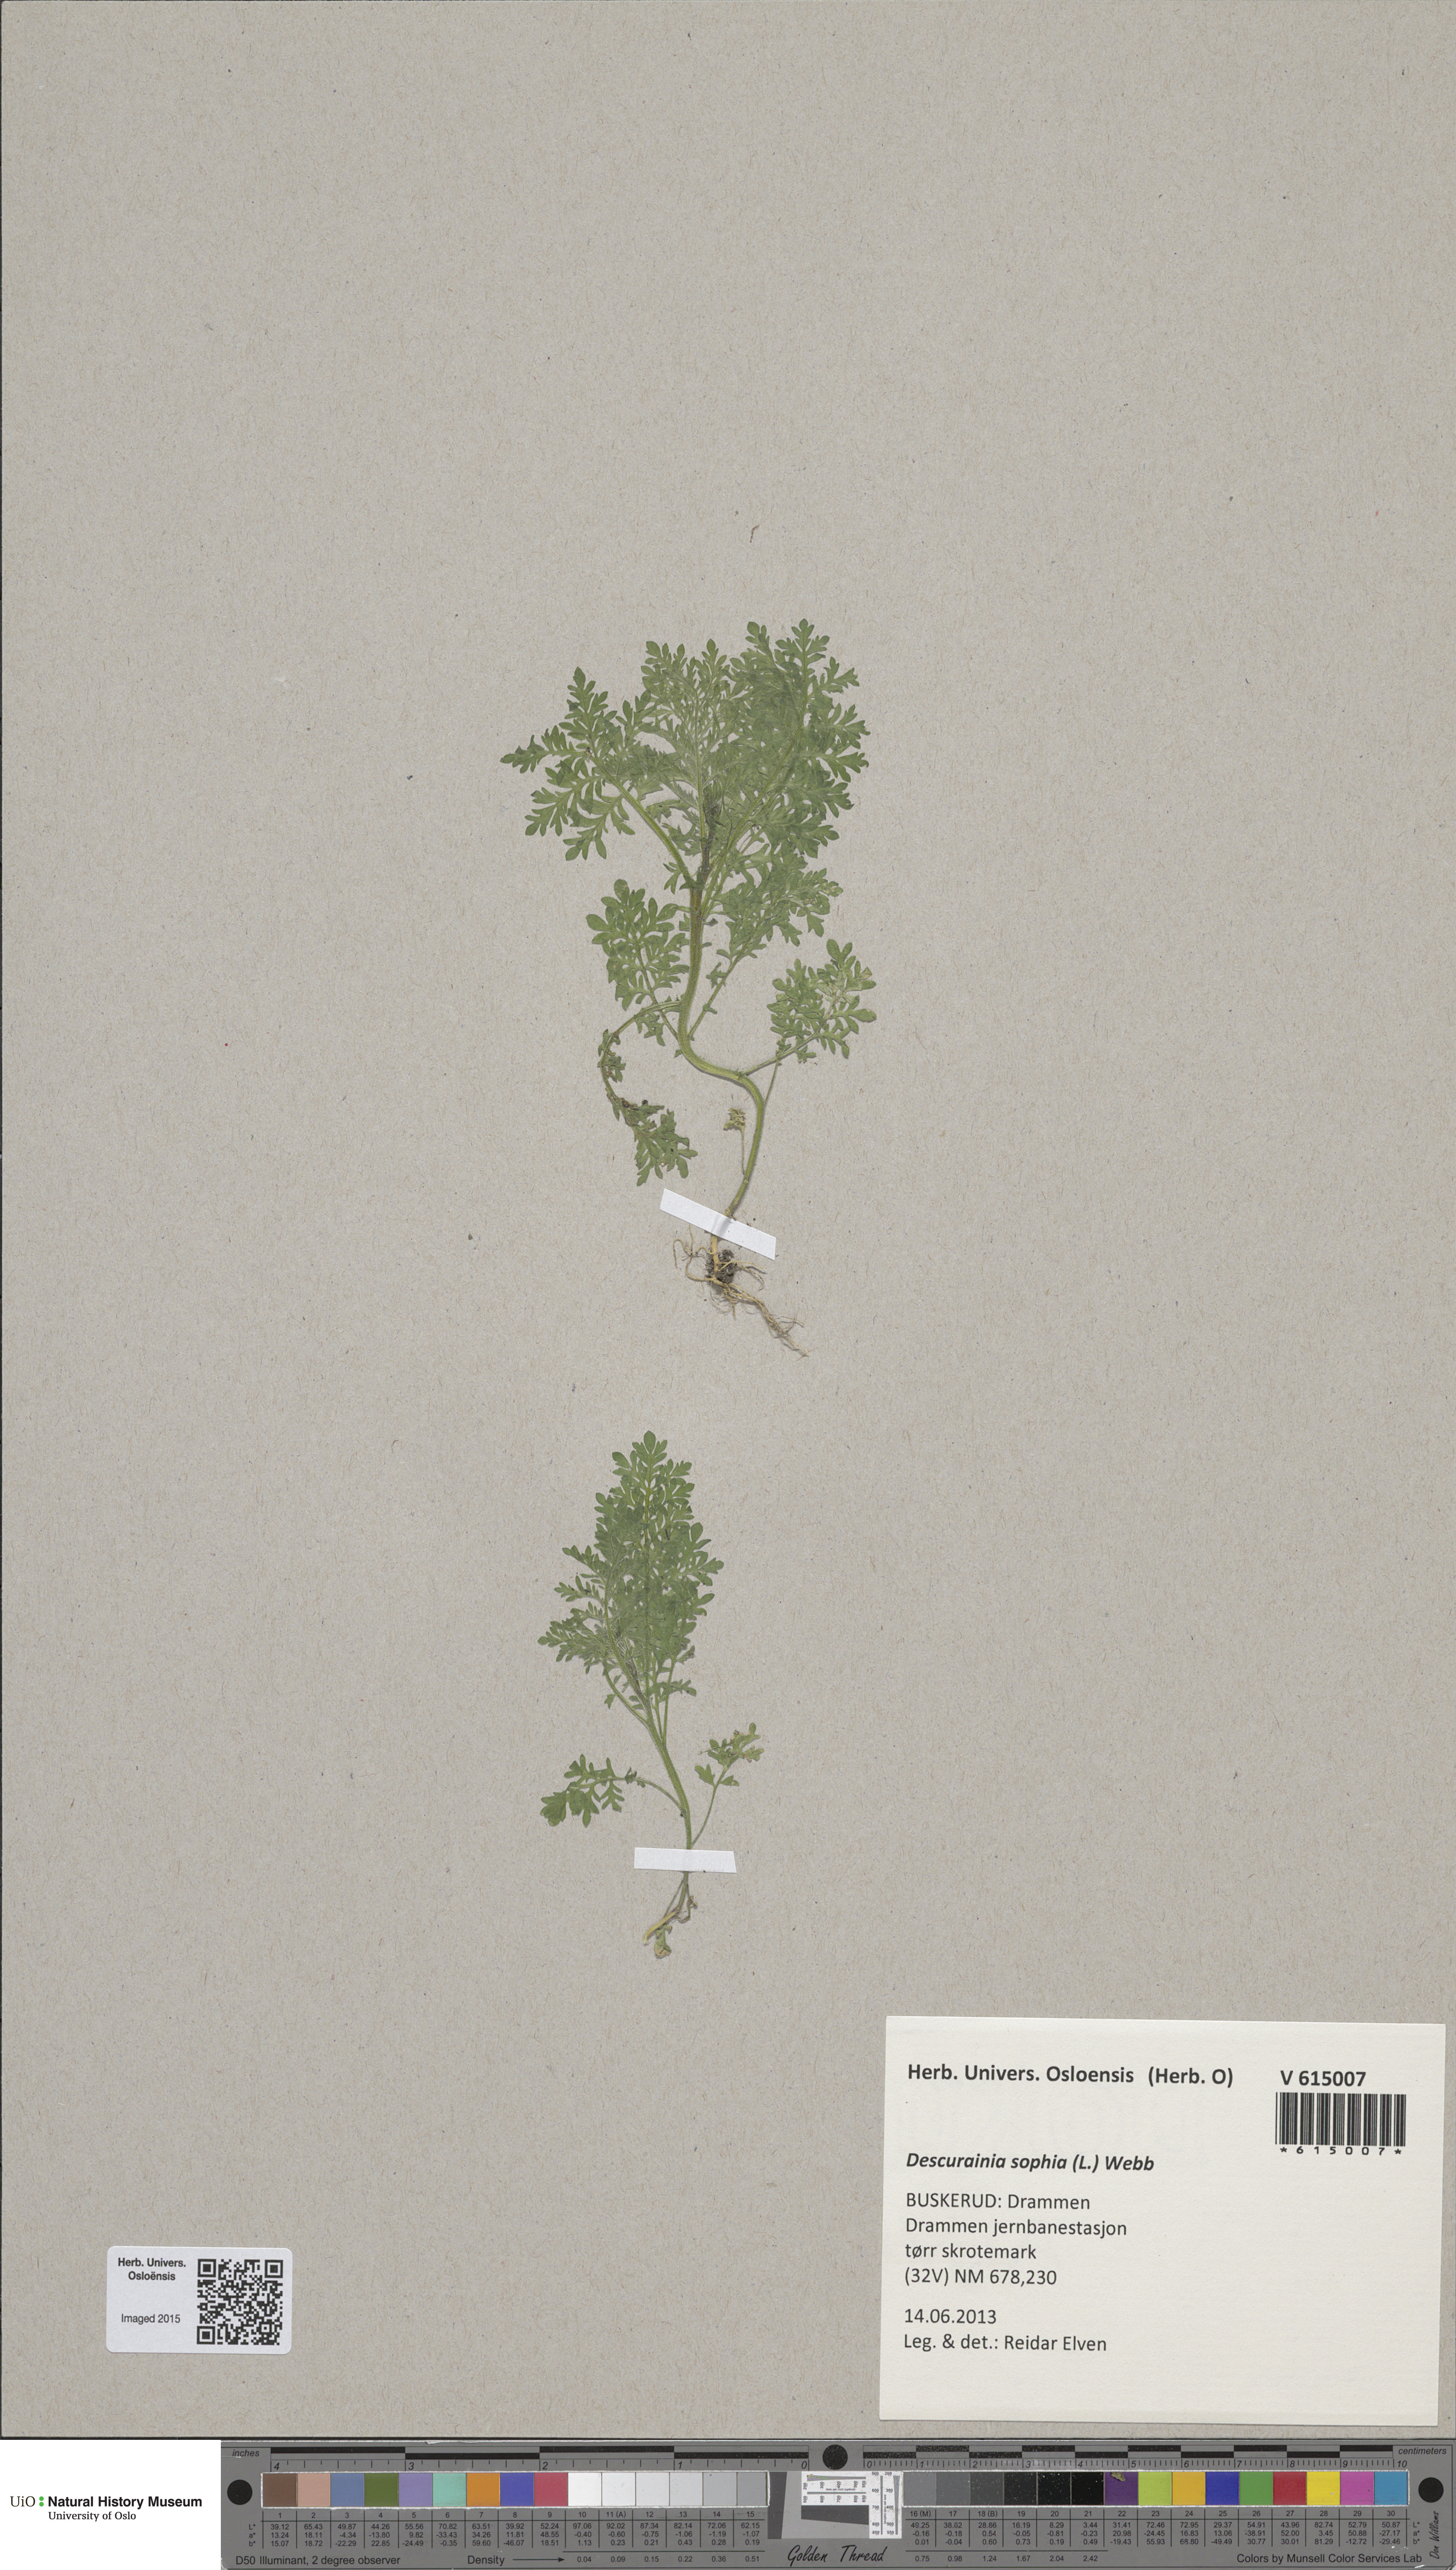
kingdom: Plantae
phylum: Tracheophyta
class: Magnoliopsida
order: Brassicales
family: Brassicaceae
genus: Descurainia
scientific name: Descurainia sophia
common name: Flixweed
